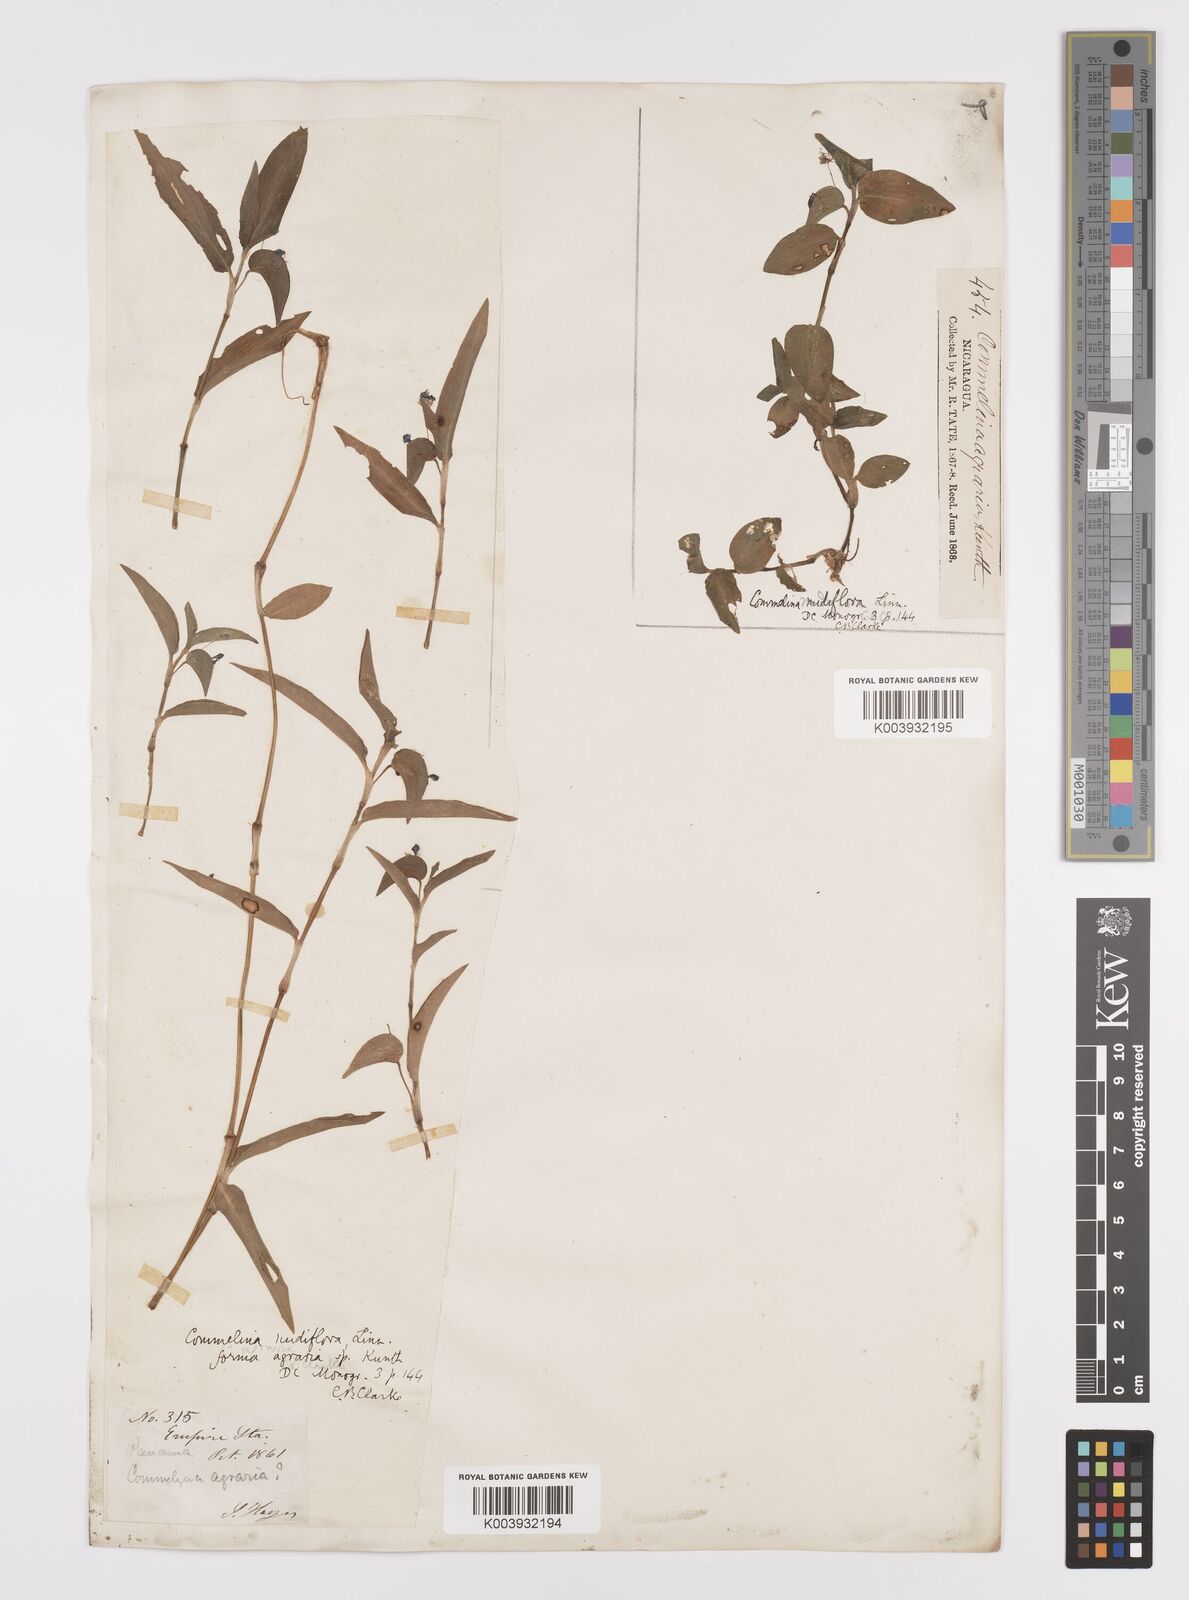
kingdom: Plantae
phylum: Tracheophyta
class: Liliopsida
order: Commelinales
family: Commelinaceae
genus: Commelina
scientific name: Commelina diffusa
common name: Climbing dayflower
